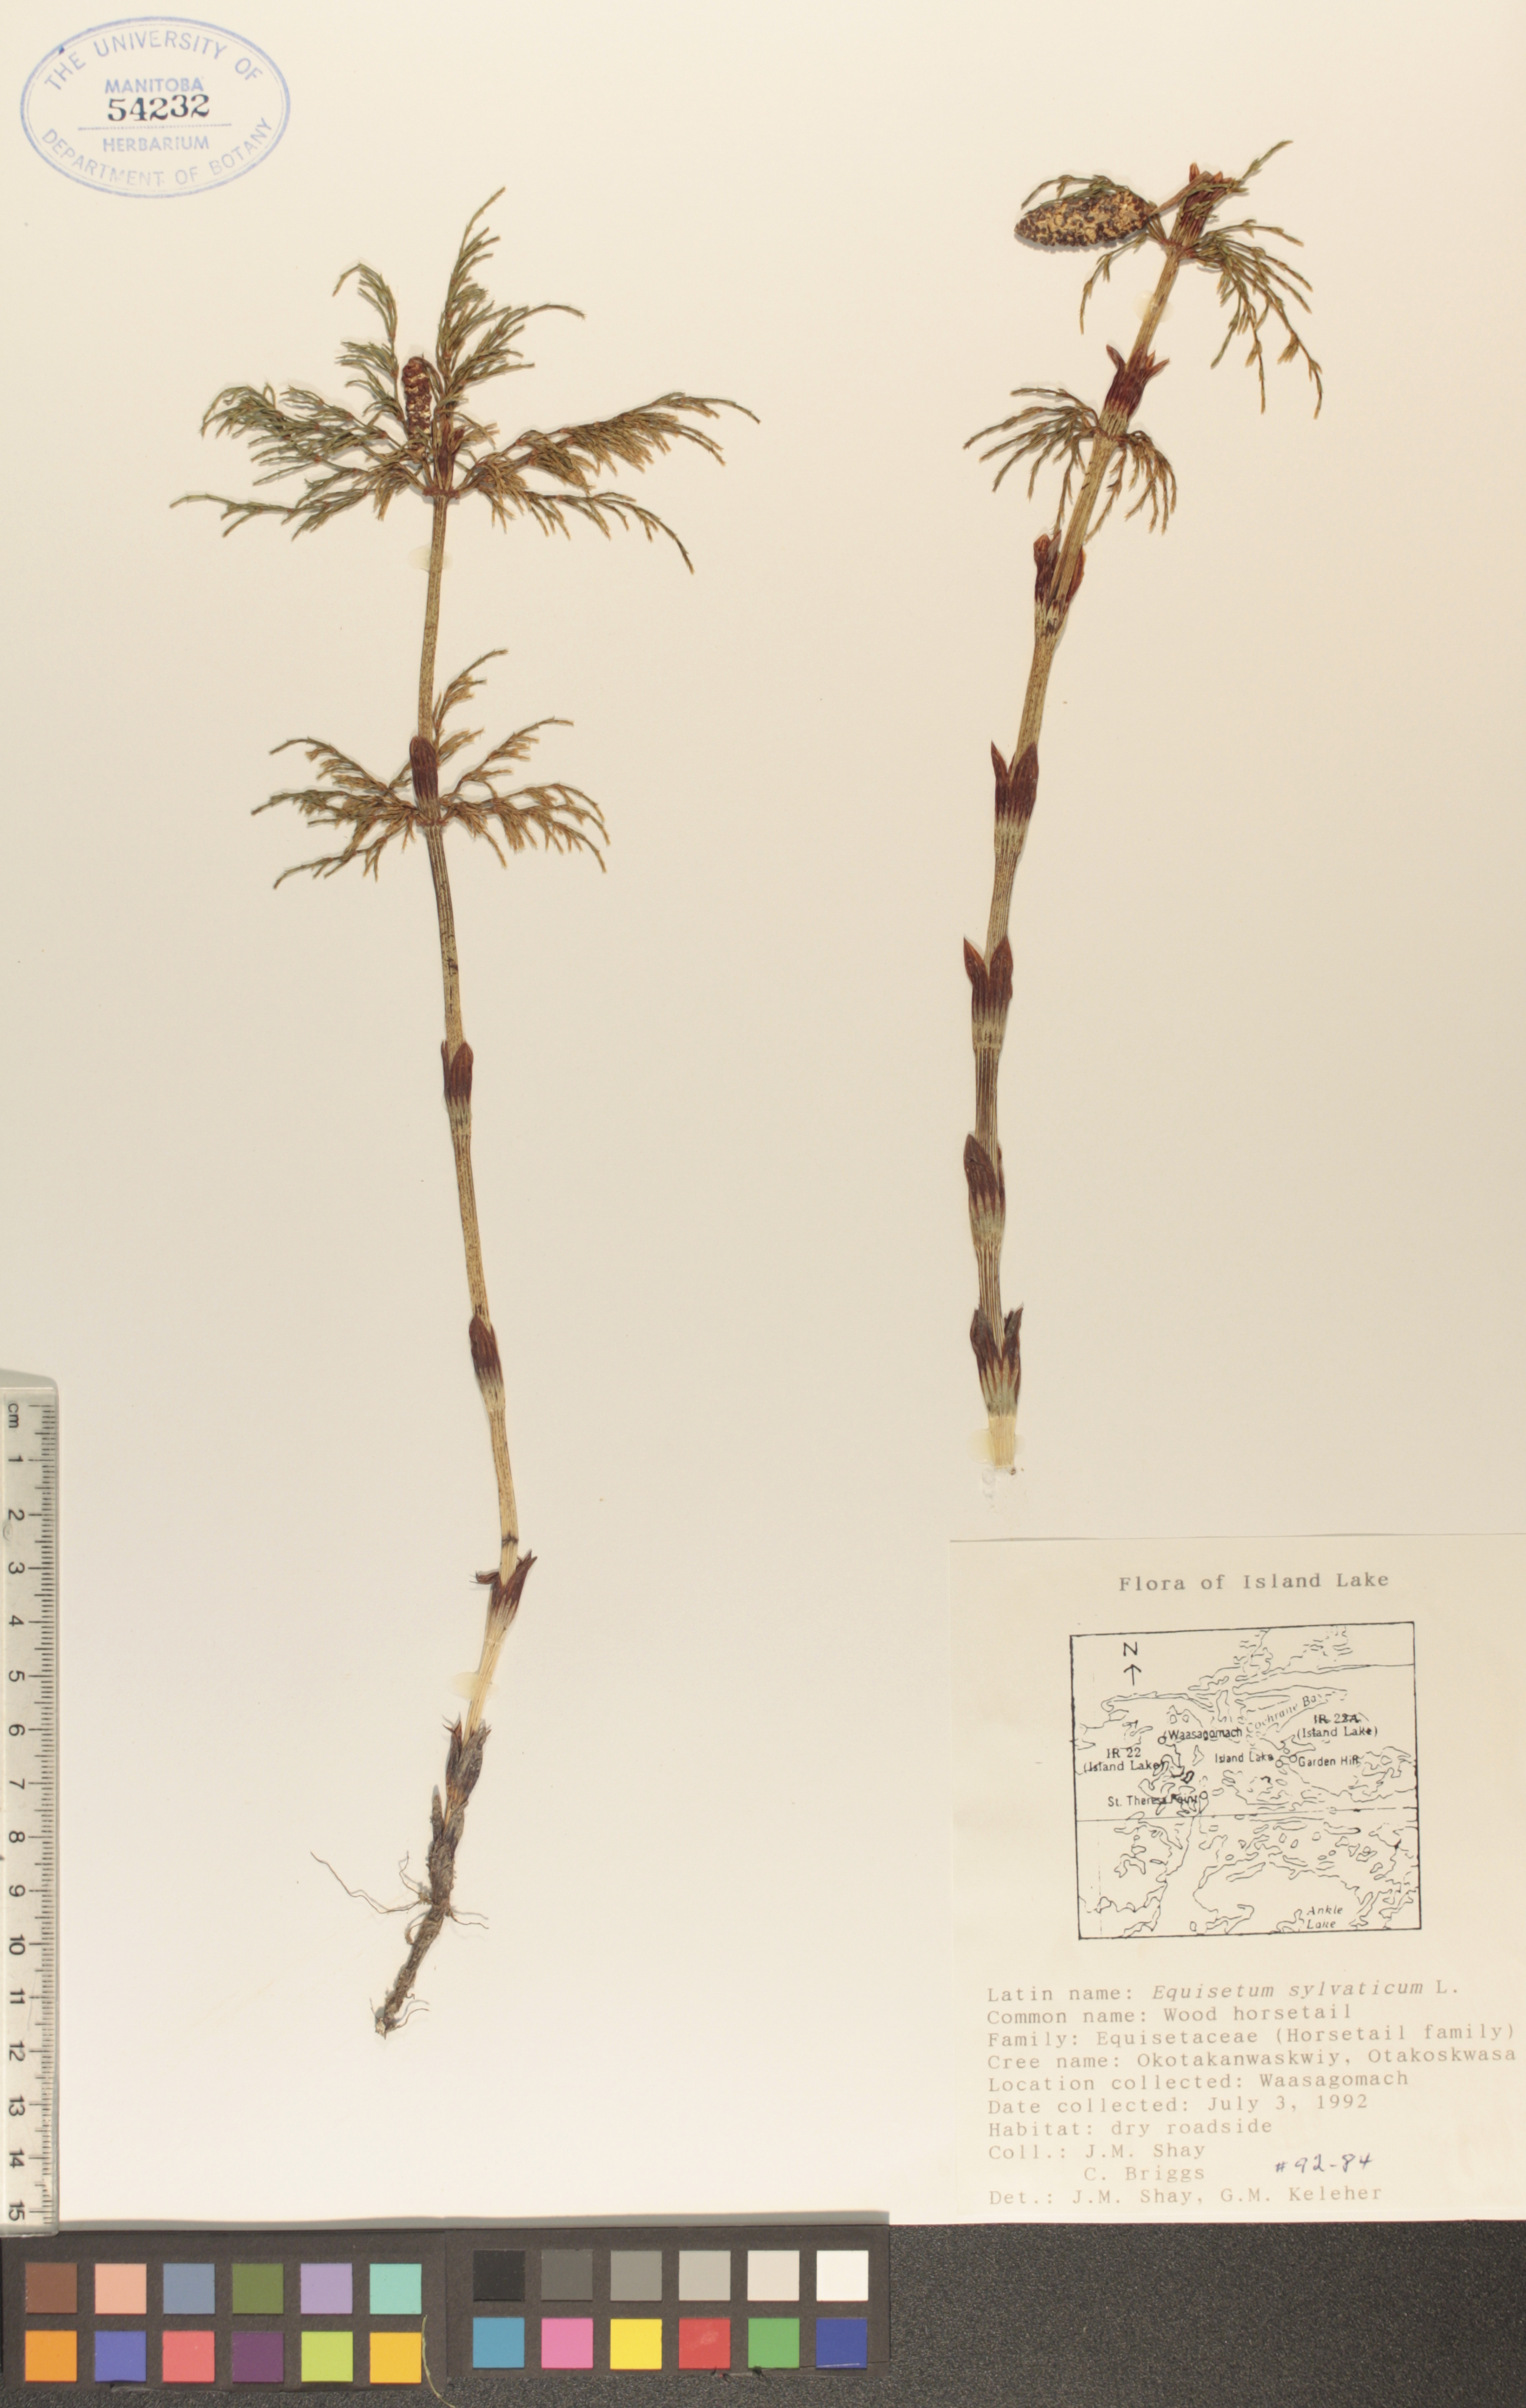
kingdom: Plantae
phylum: Tracheophyta
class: Polypodiopsida
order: Equisetales
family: Equisetaceae
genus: Equisetum
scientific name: Equisetum sylvaticum
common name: Wood horsetail
